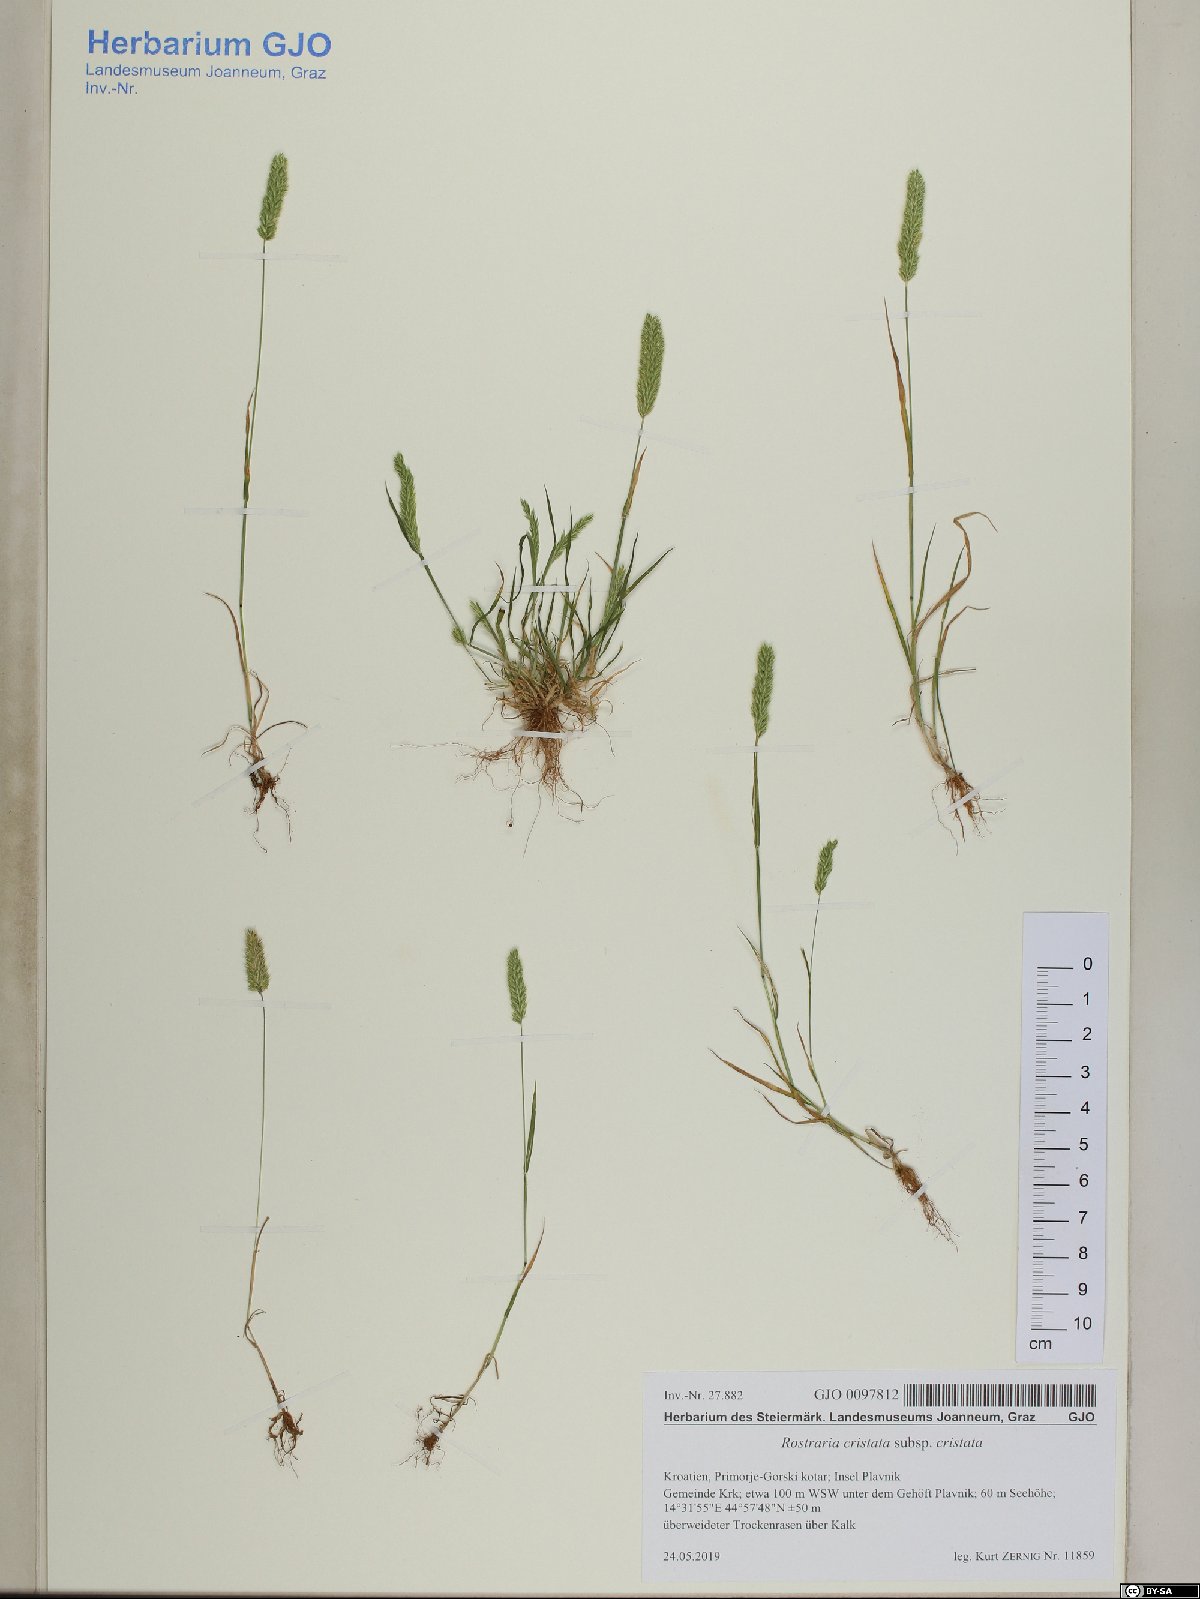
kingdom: Plantae
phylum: Tracheophyta
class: Liliopsida
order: Poales
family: Poaceae
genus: Rostraria
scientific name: Rostraria cristata
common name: Mediterranean hair-grass
